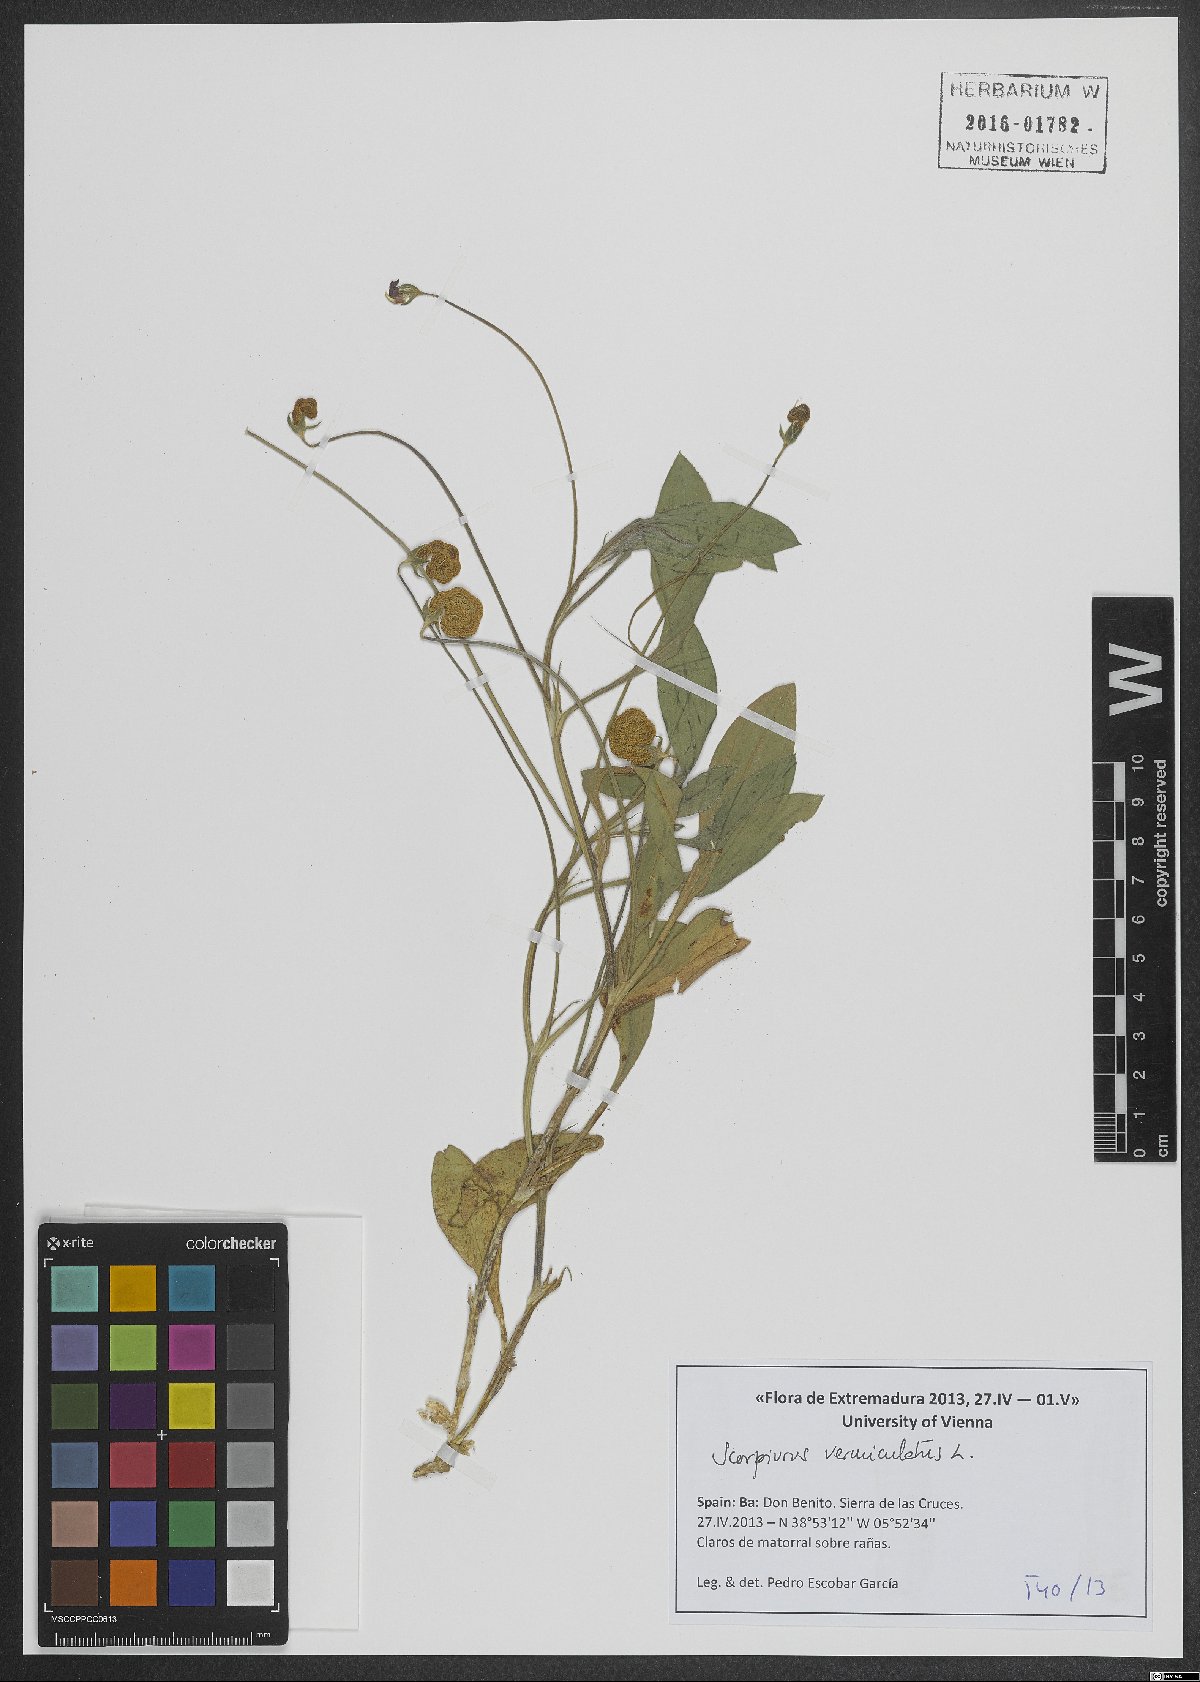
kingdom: Plantae
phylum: Tracheophyta
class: Magnoliopsida
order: Fabales
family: Fabaceae
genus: Scorpiurus
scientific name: Scorpiurus vermiculatus
